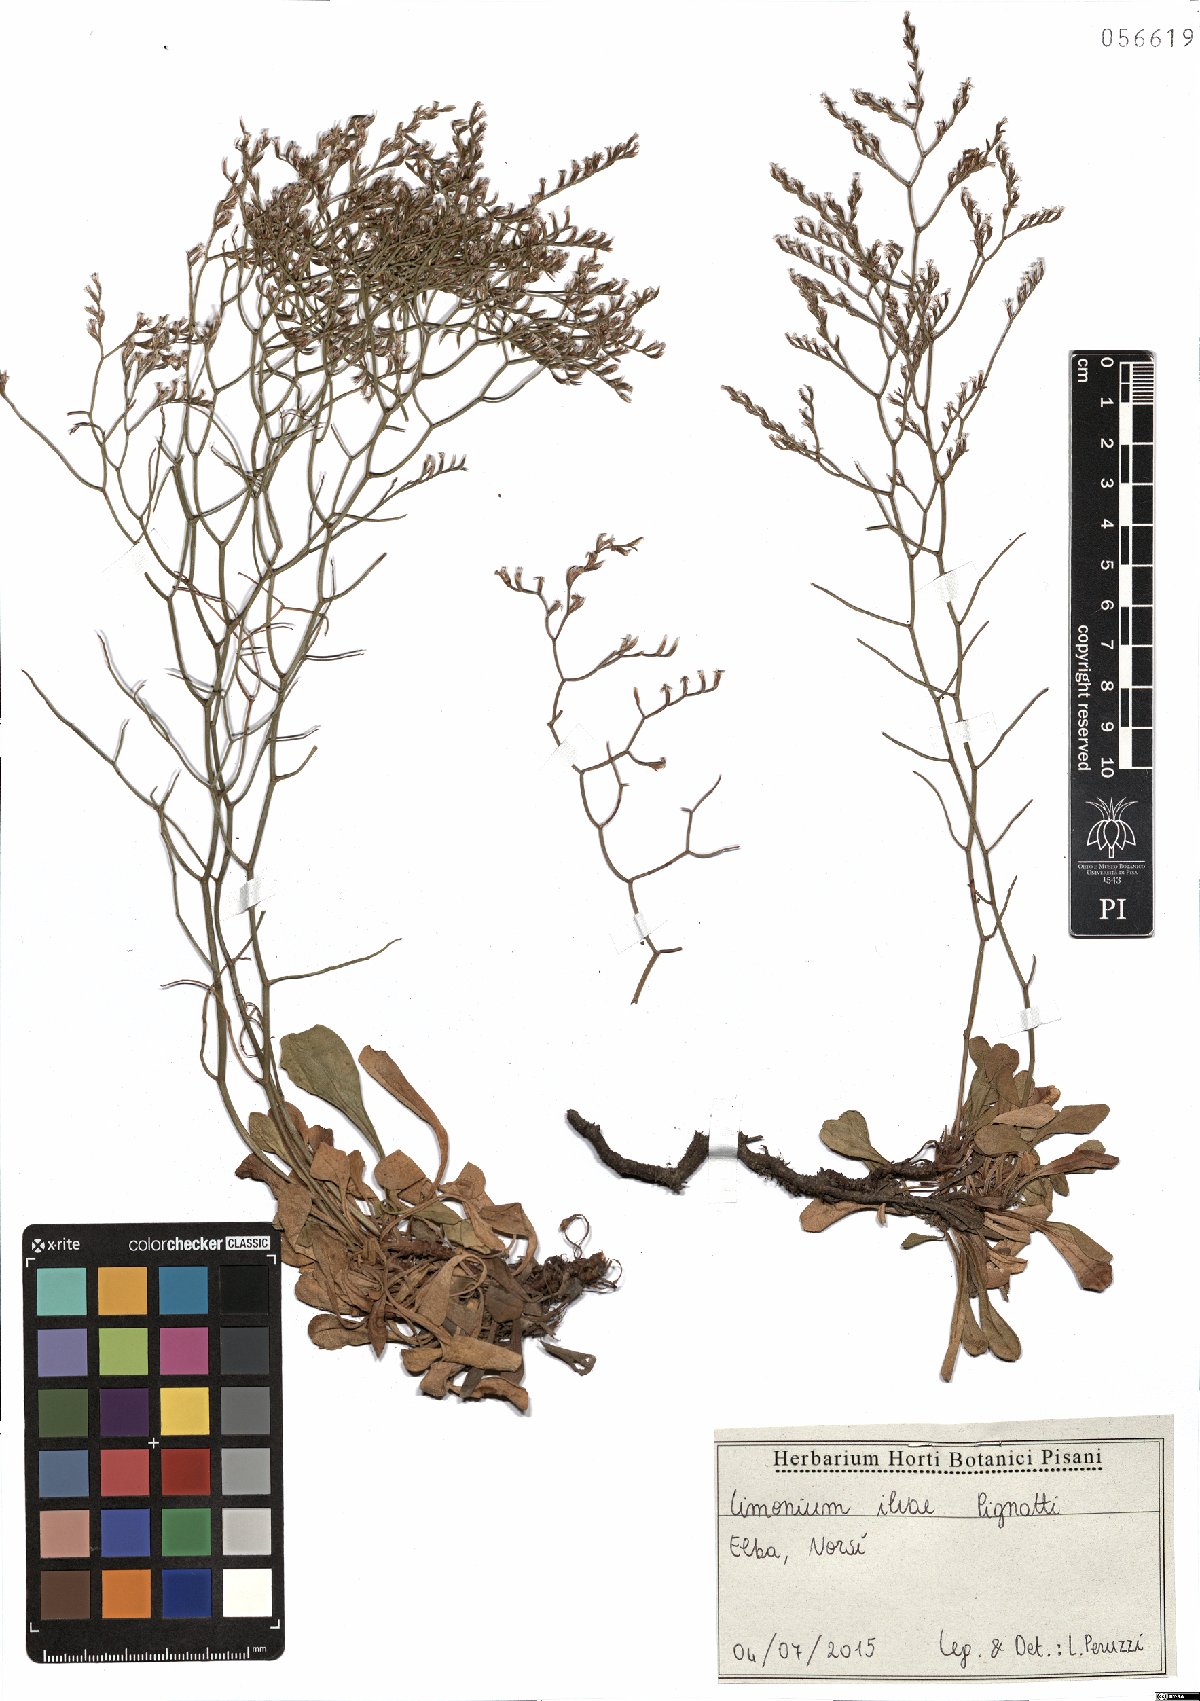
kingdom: Plantae
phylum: Tracheophyta
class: Magnoliopsida
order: Caryophyllales
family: Plumbaginaceae
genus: Limonium
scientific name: Limonium ilvae
